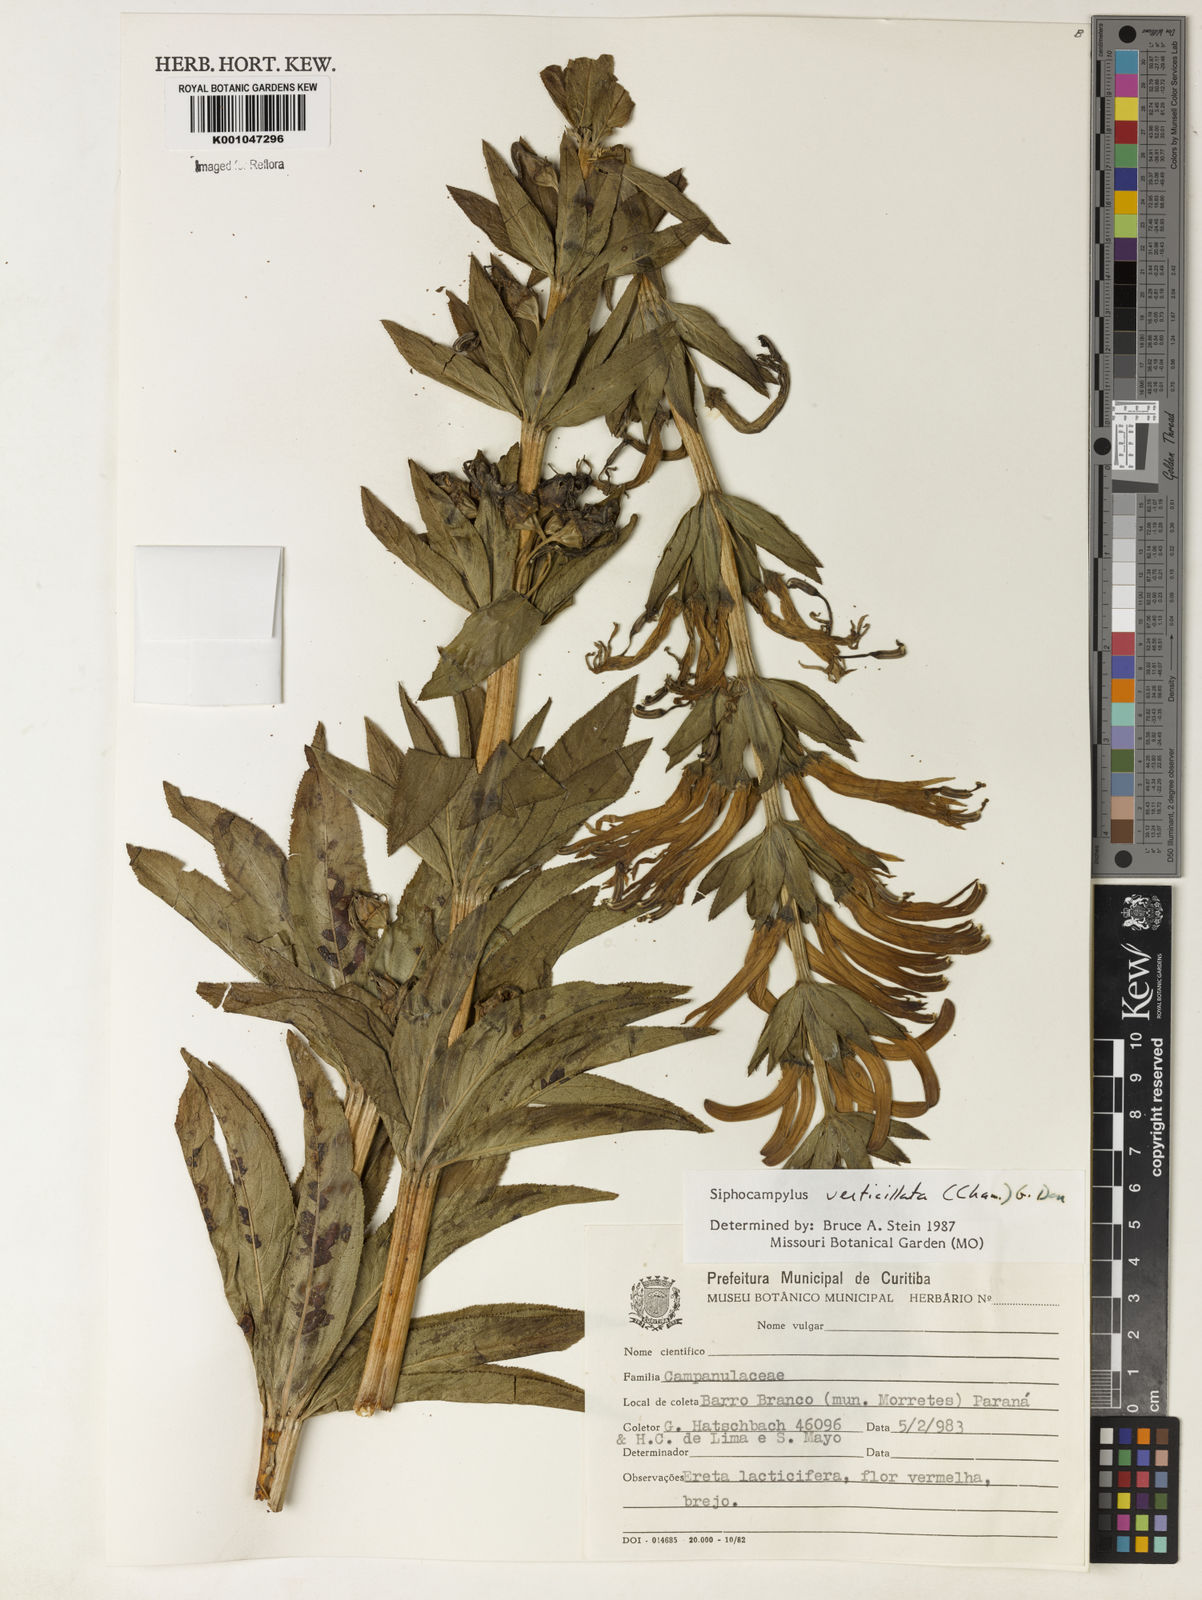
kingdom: Plantae
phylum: Tracheophyta
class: Magnoliopsida
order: Asterales
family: Campanulaceae
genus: Siphocampylus
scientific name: Siphocampylus verticillatus
